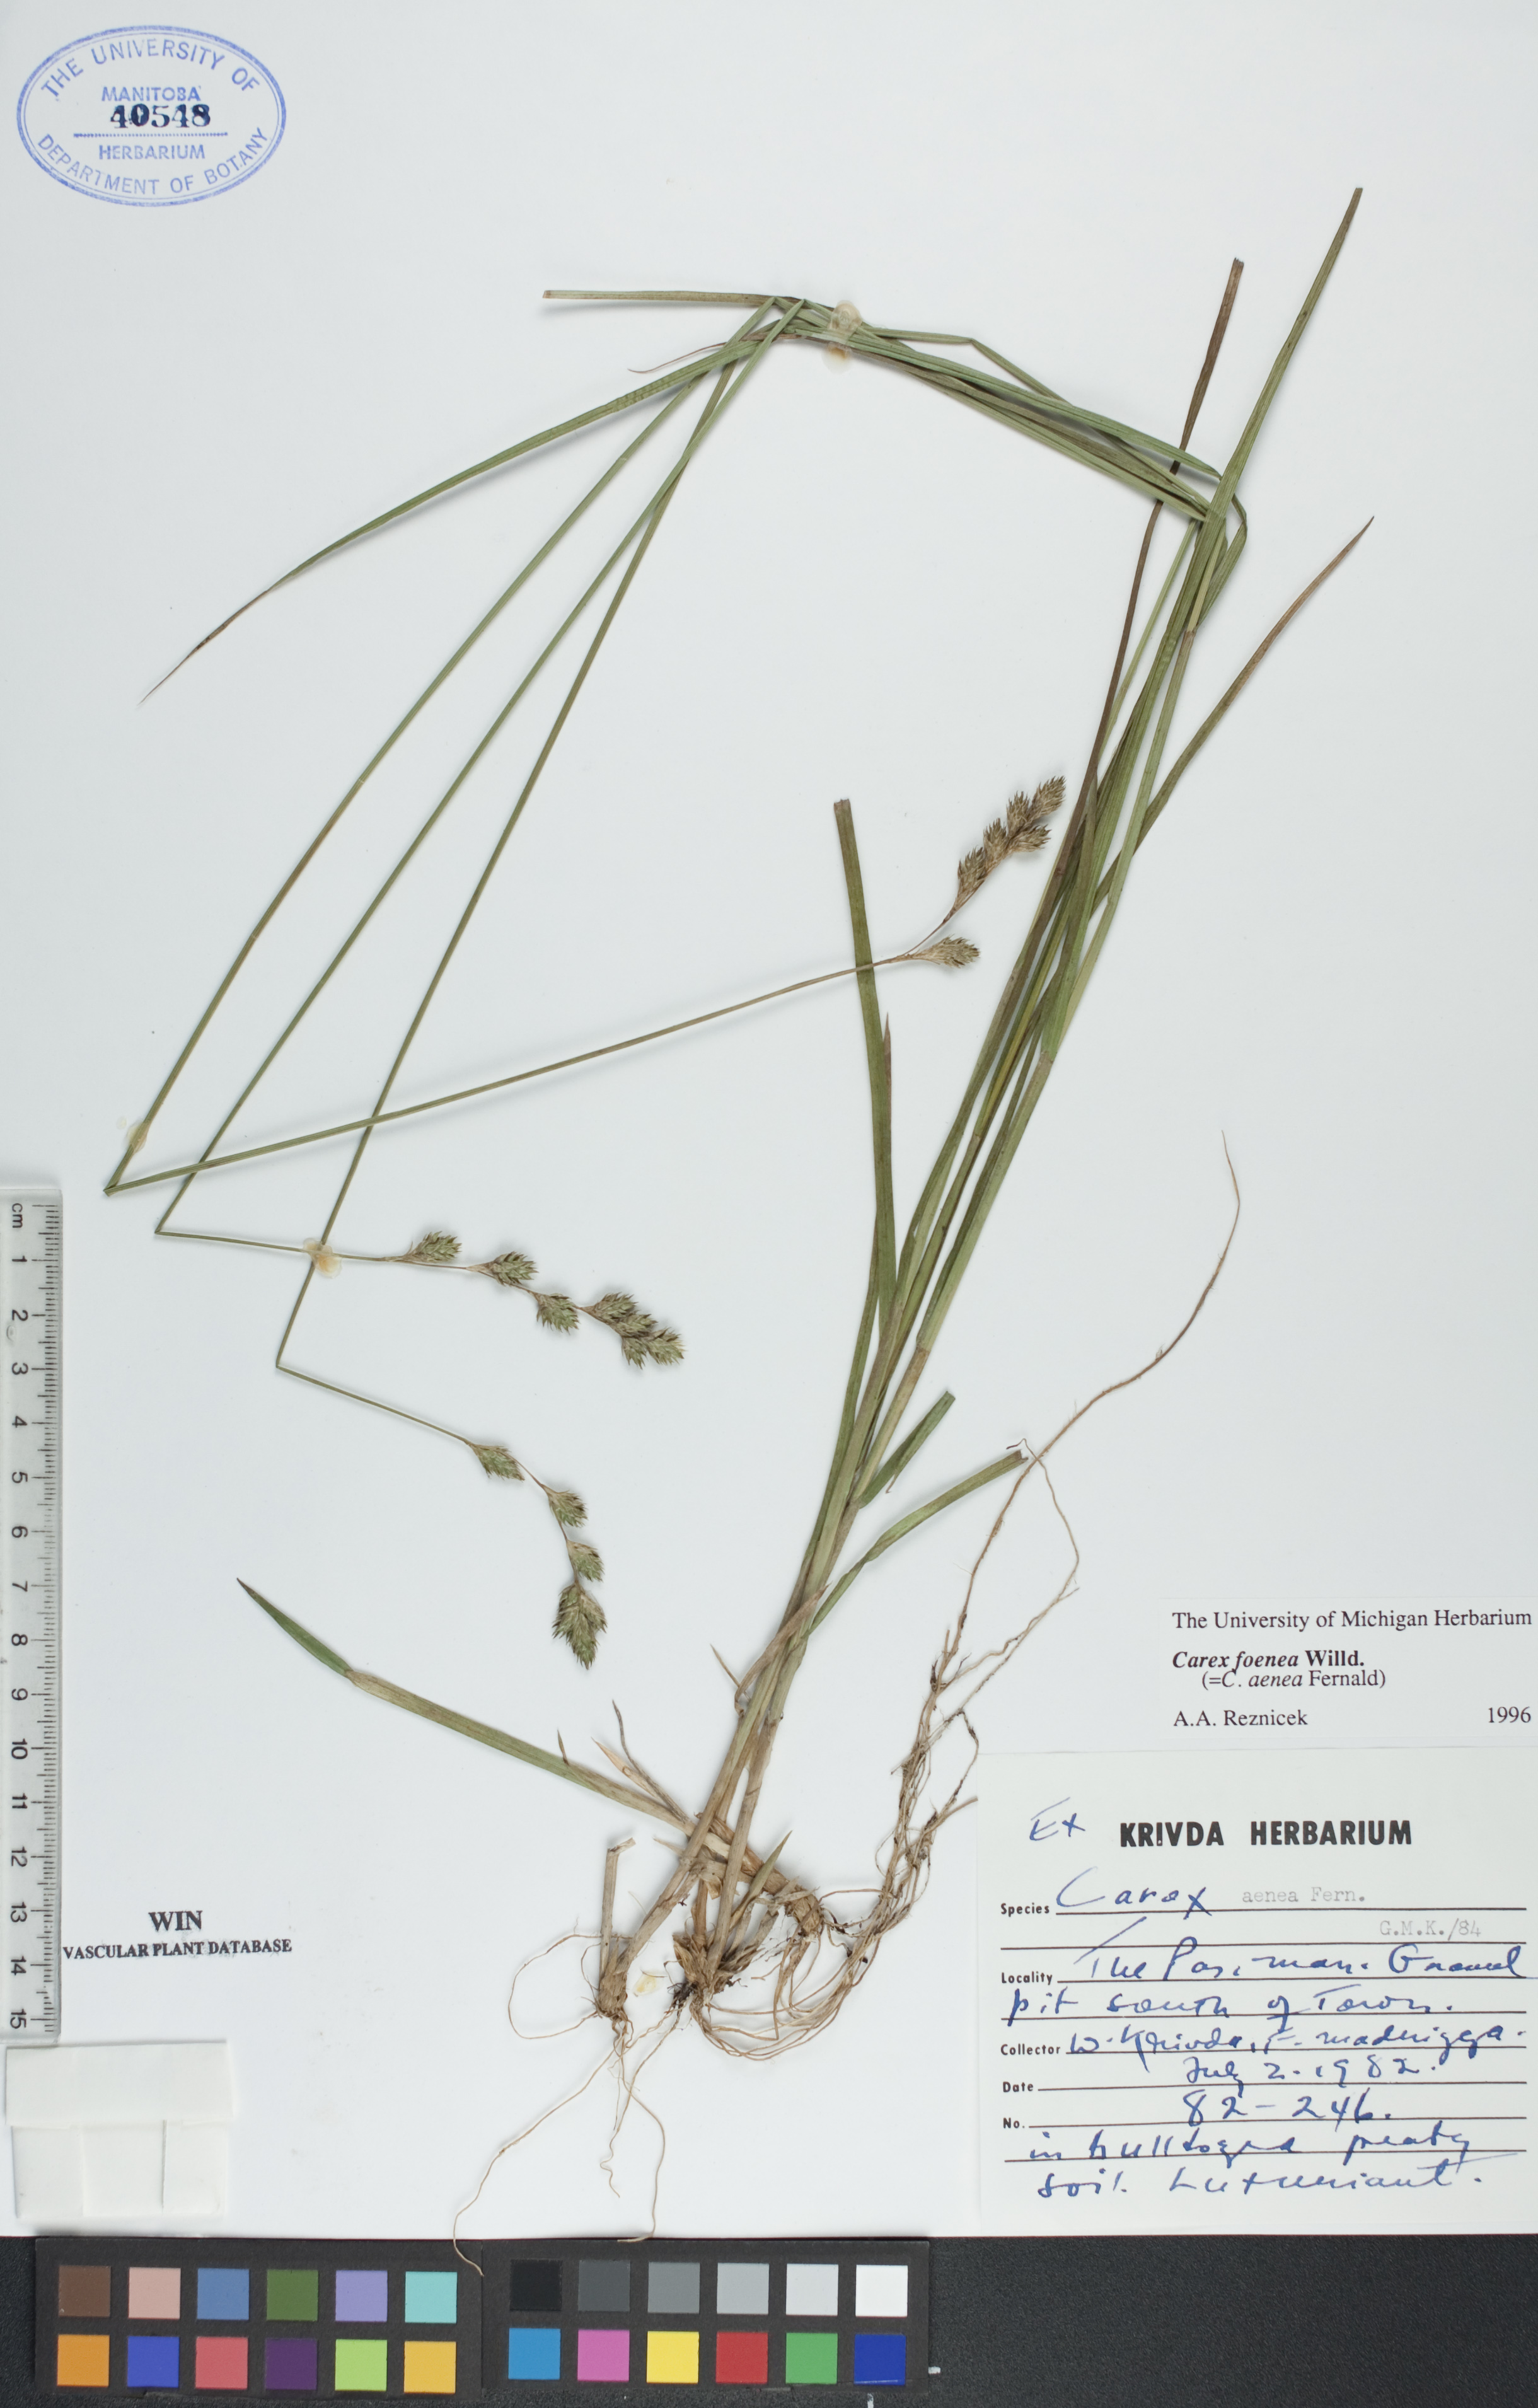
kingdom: Plantae
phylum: Tracheophyta
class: Liliopsida
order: Poales
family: Cyperaceae
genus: Carex
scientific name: Carex foenea
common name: Bronze sedge
